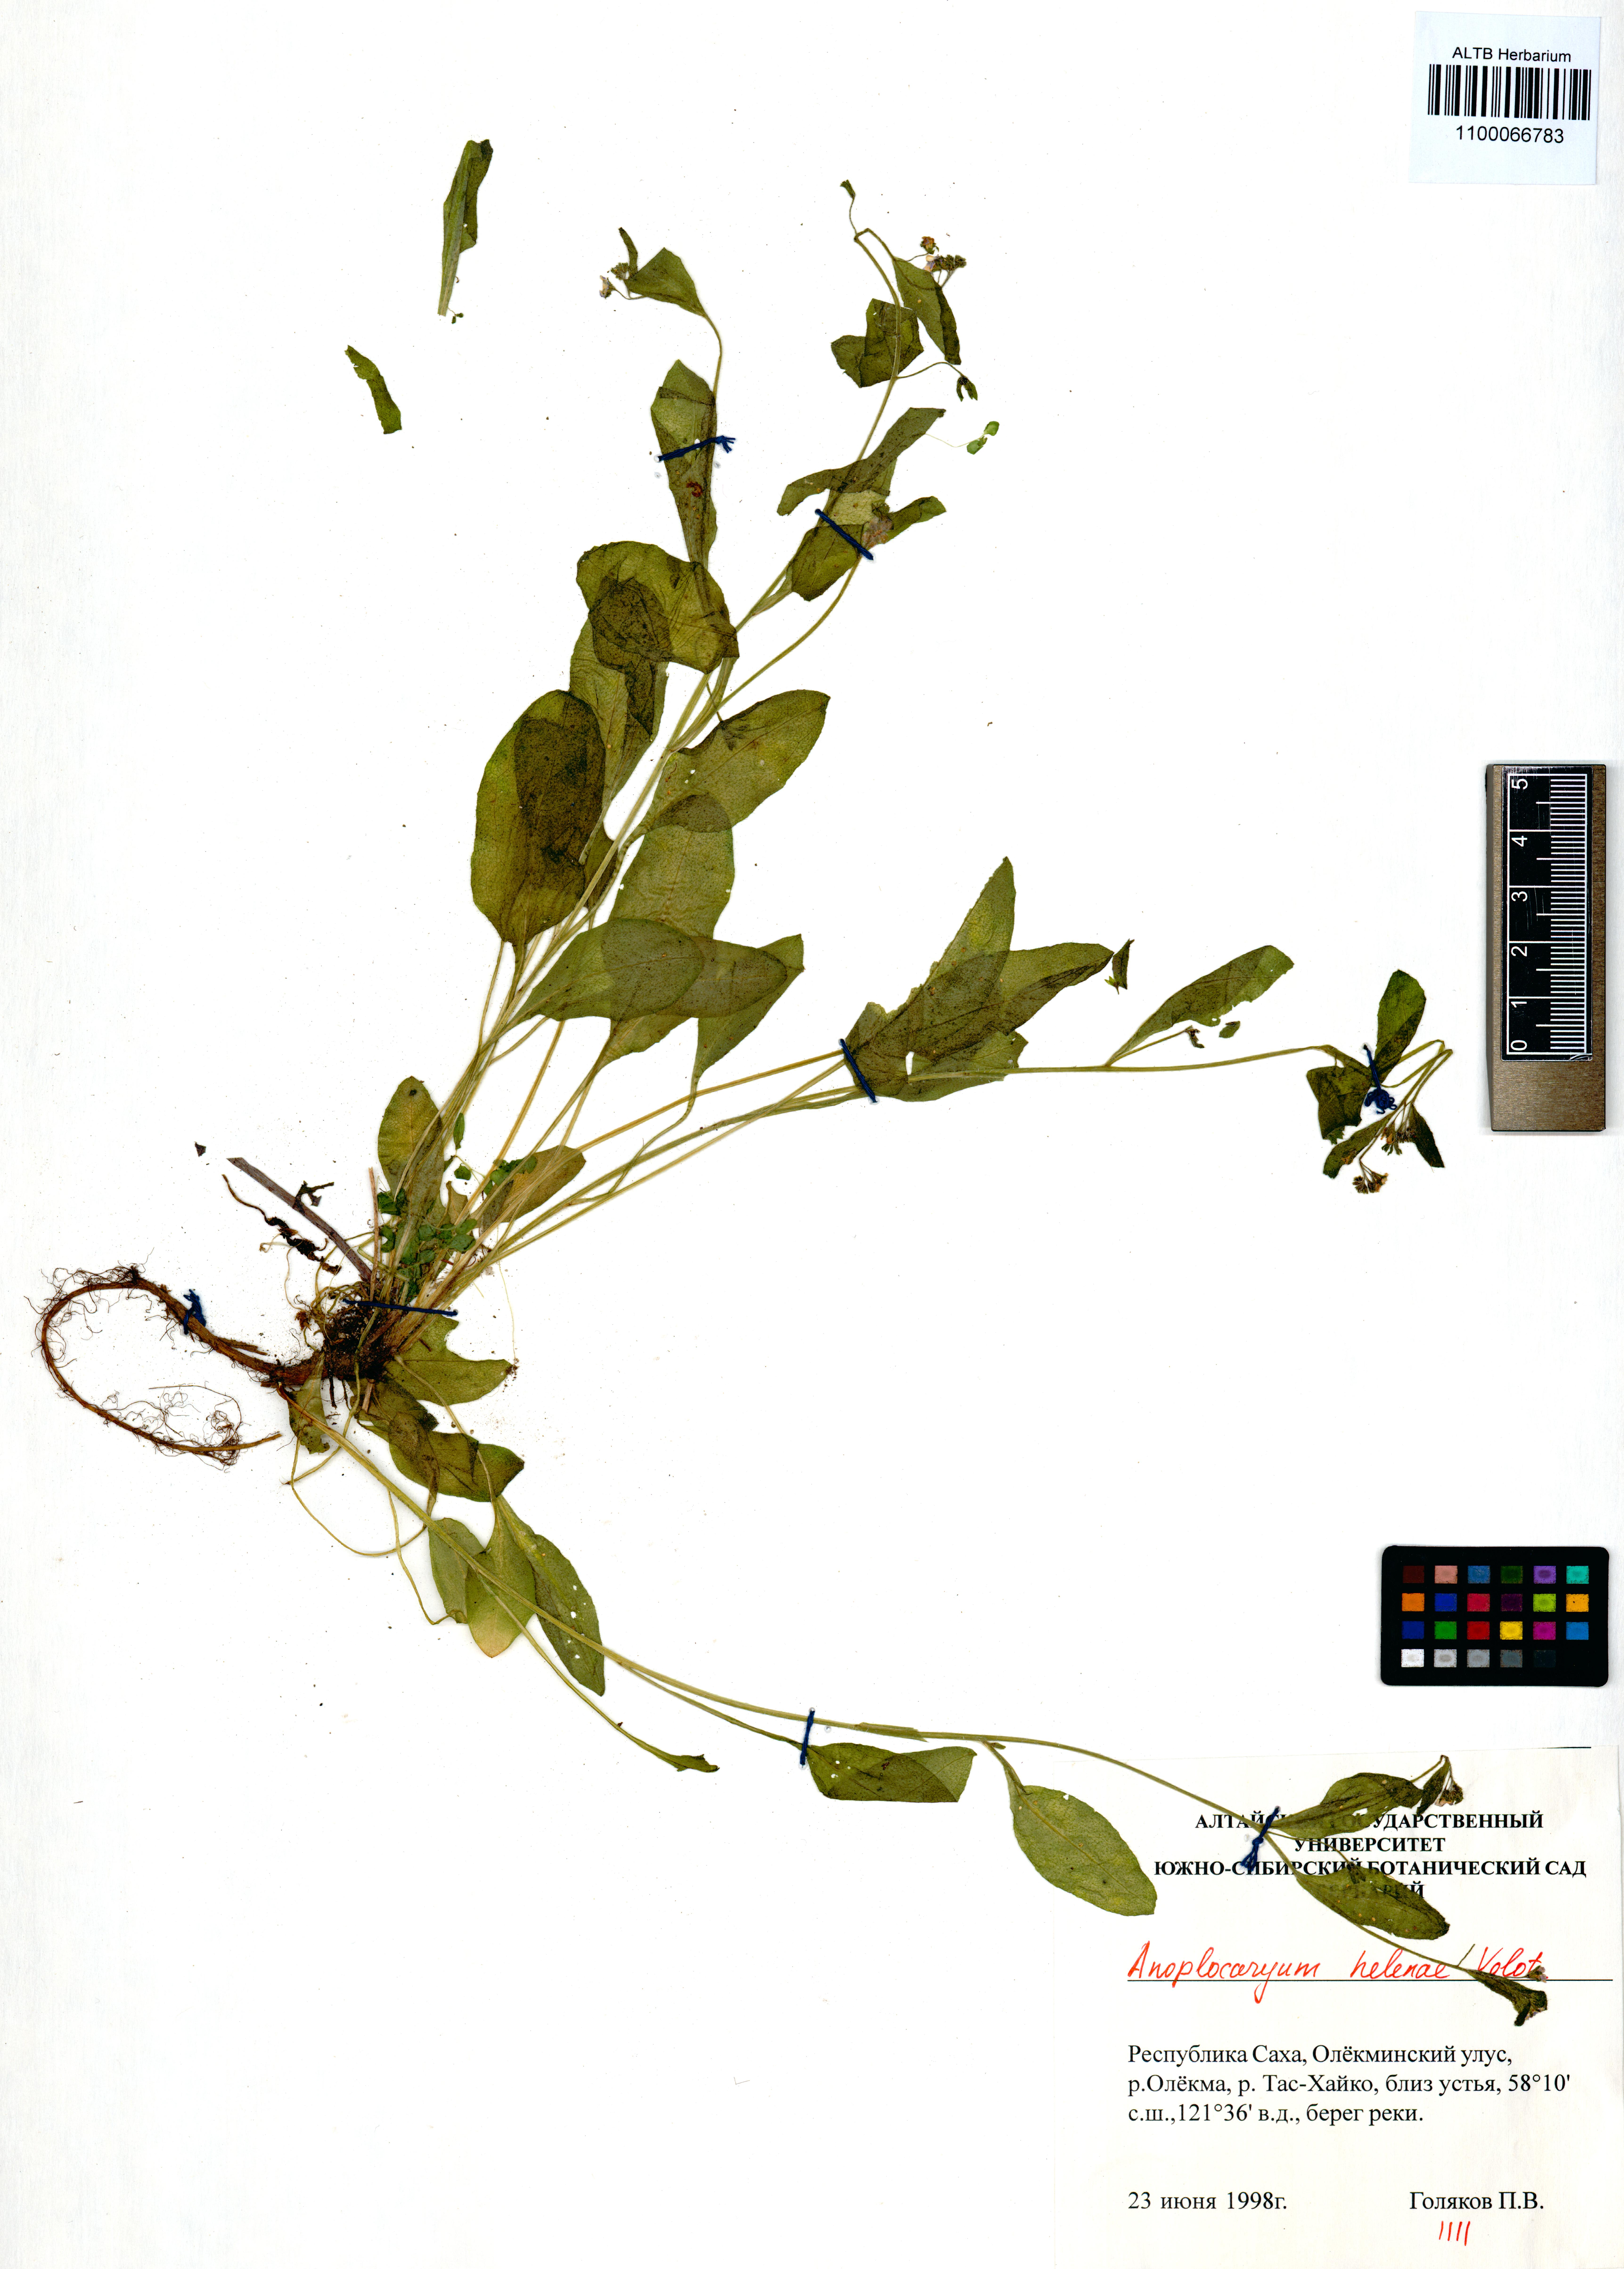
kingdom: Plantae
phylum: Tracheophyta
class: Magnoliopsida
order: Boraginales
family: Boraginaceae
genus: Anoplocaryum
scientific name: Anoplocaryum helenae
